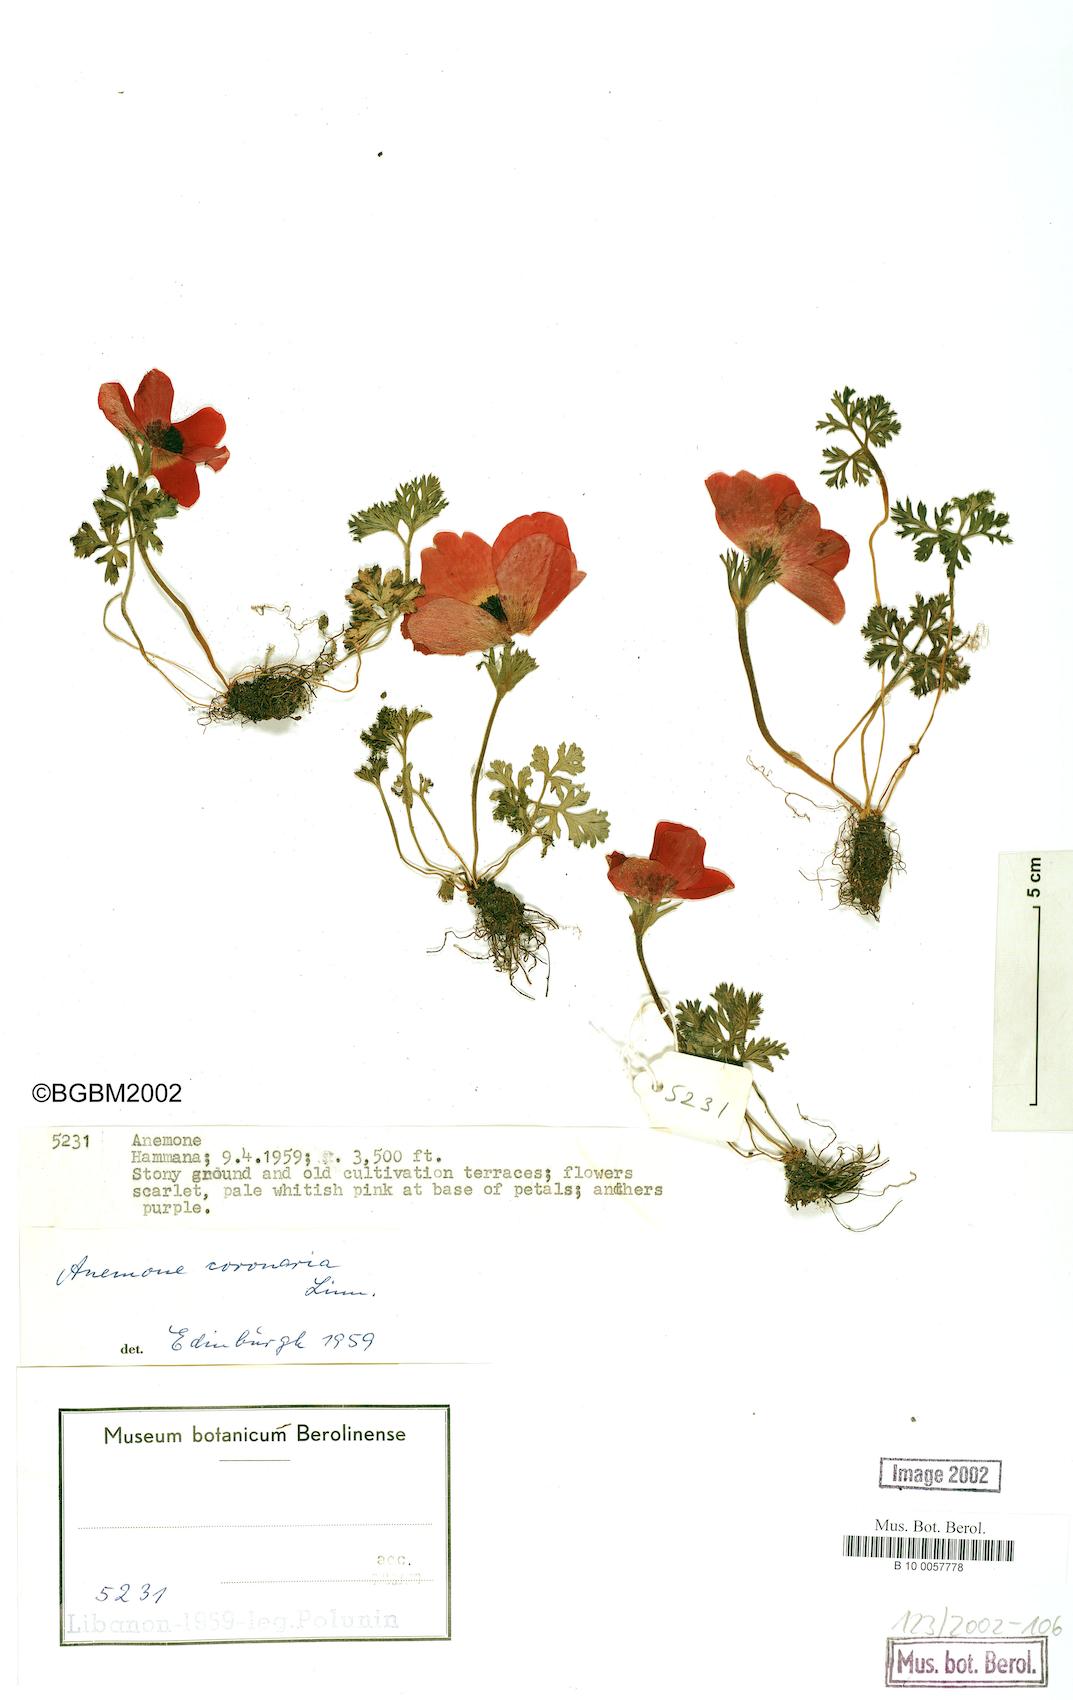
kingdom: Plantae
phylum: Tracheophyta
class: Magnoliopsida
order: Ranunculales
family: Ranunculaceae
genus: Anemone
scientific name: Anemone coronaria
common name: Poppy anemone
